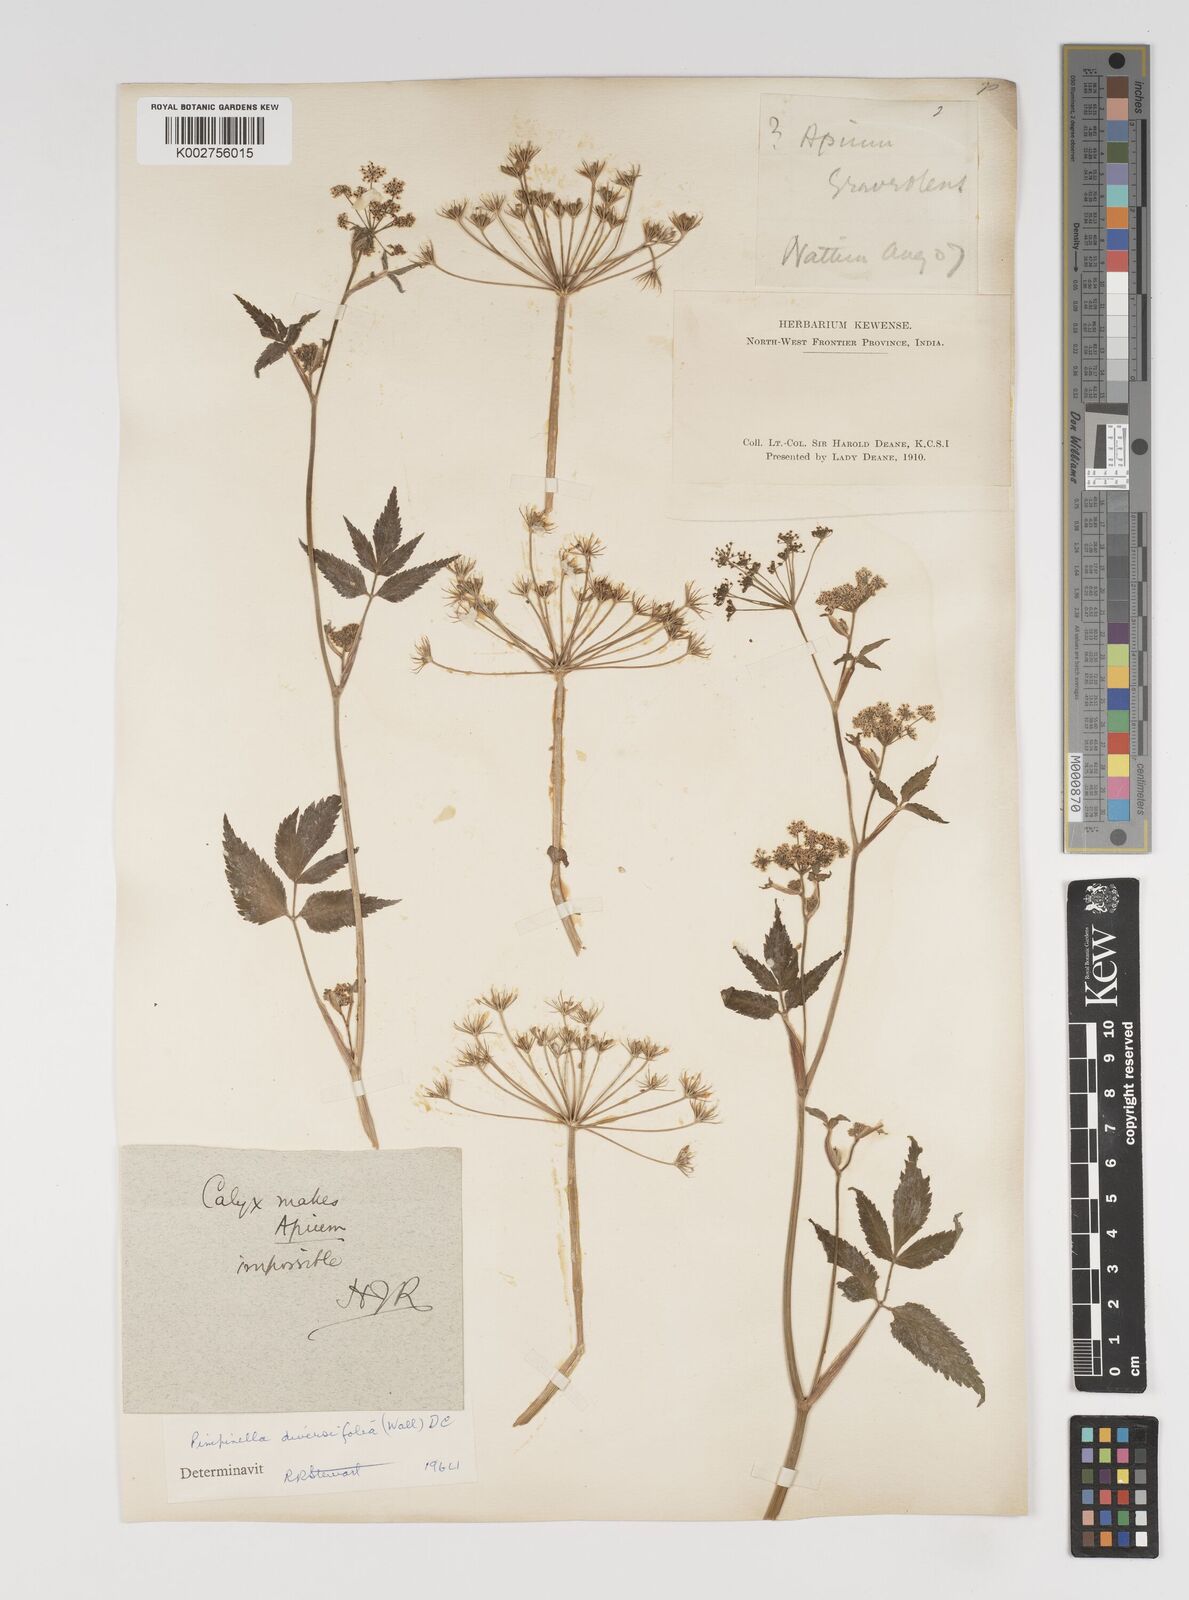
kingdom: Plantae
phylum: Tracheophyta
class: Magnoliopsida
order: Apiales
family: Apiaceae
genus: Pimpinella
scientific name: Pimpinella diversifolia
